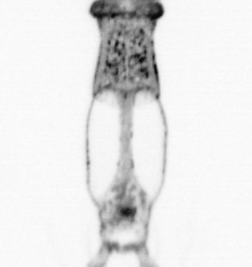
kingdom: Animalia
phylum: Arthropoda
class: Copepoda
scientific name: Copepoda
